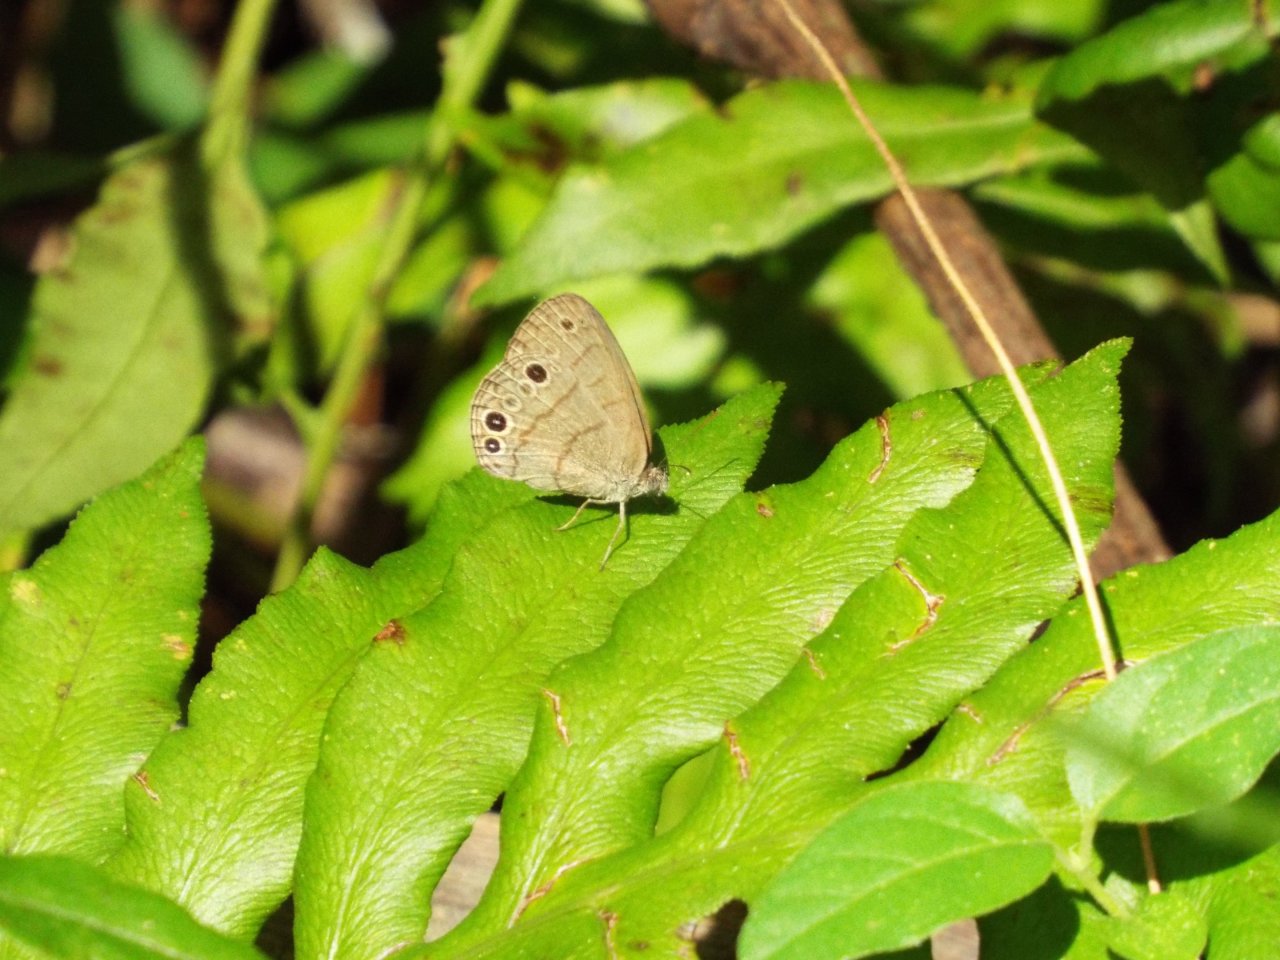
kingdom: Animalia
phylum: Arthropoda
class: Insecta
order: Lepidoptera
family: Nymphalidae
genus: Hermeuptychia
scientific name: Hermeuptychia intricata
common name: Intricate Satyr
